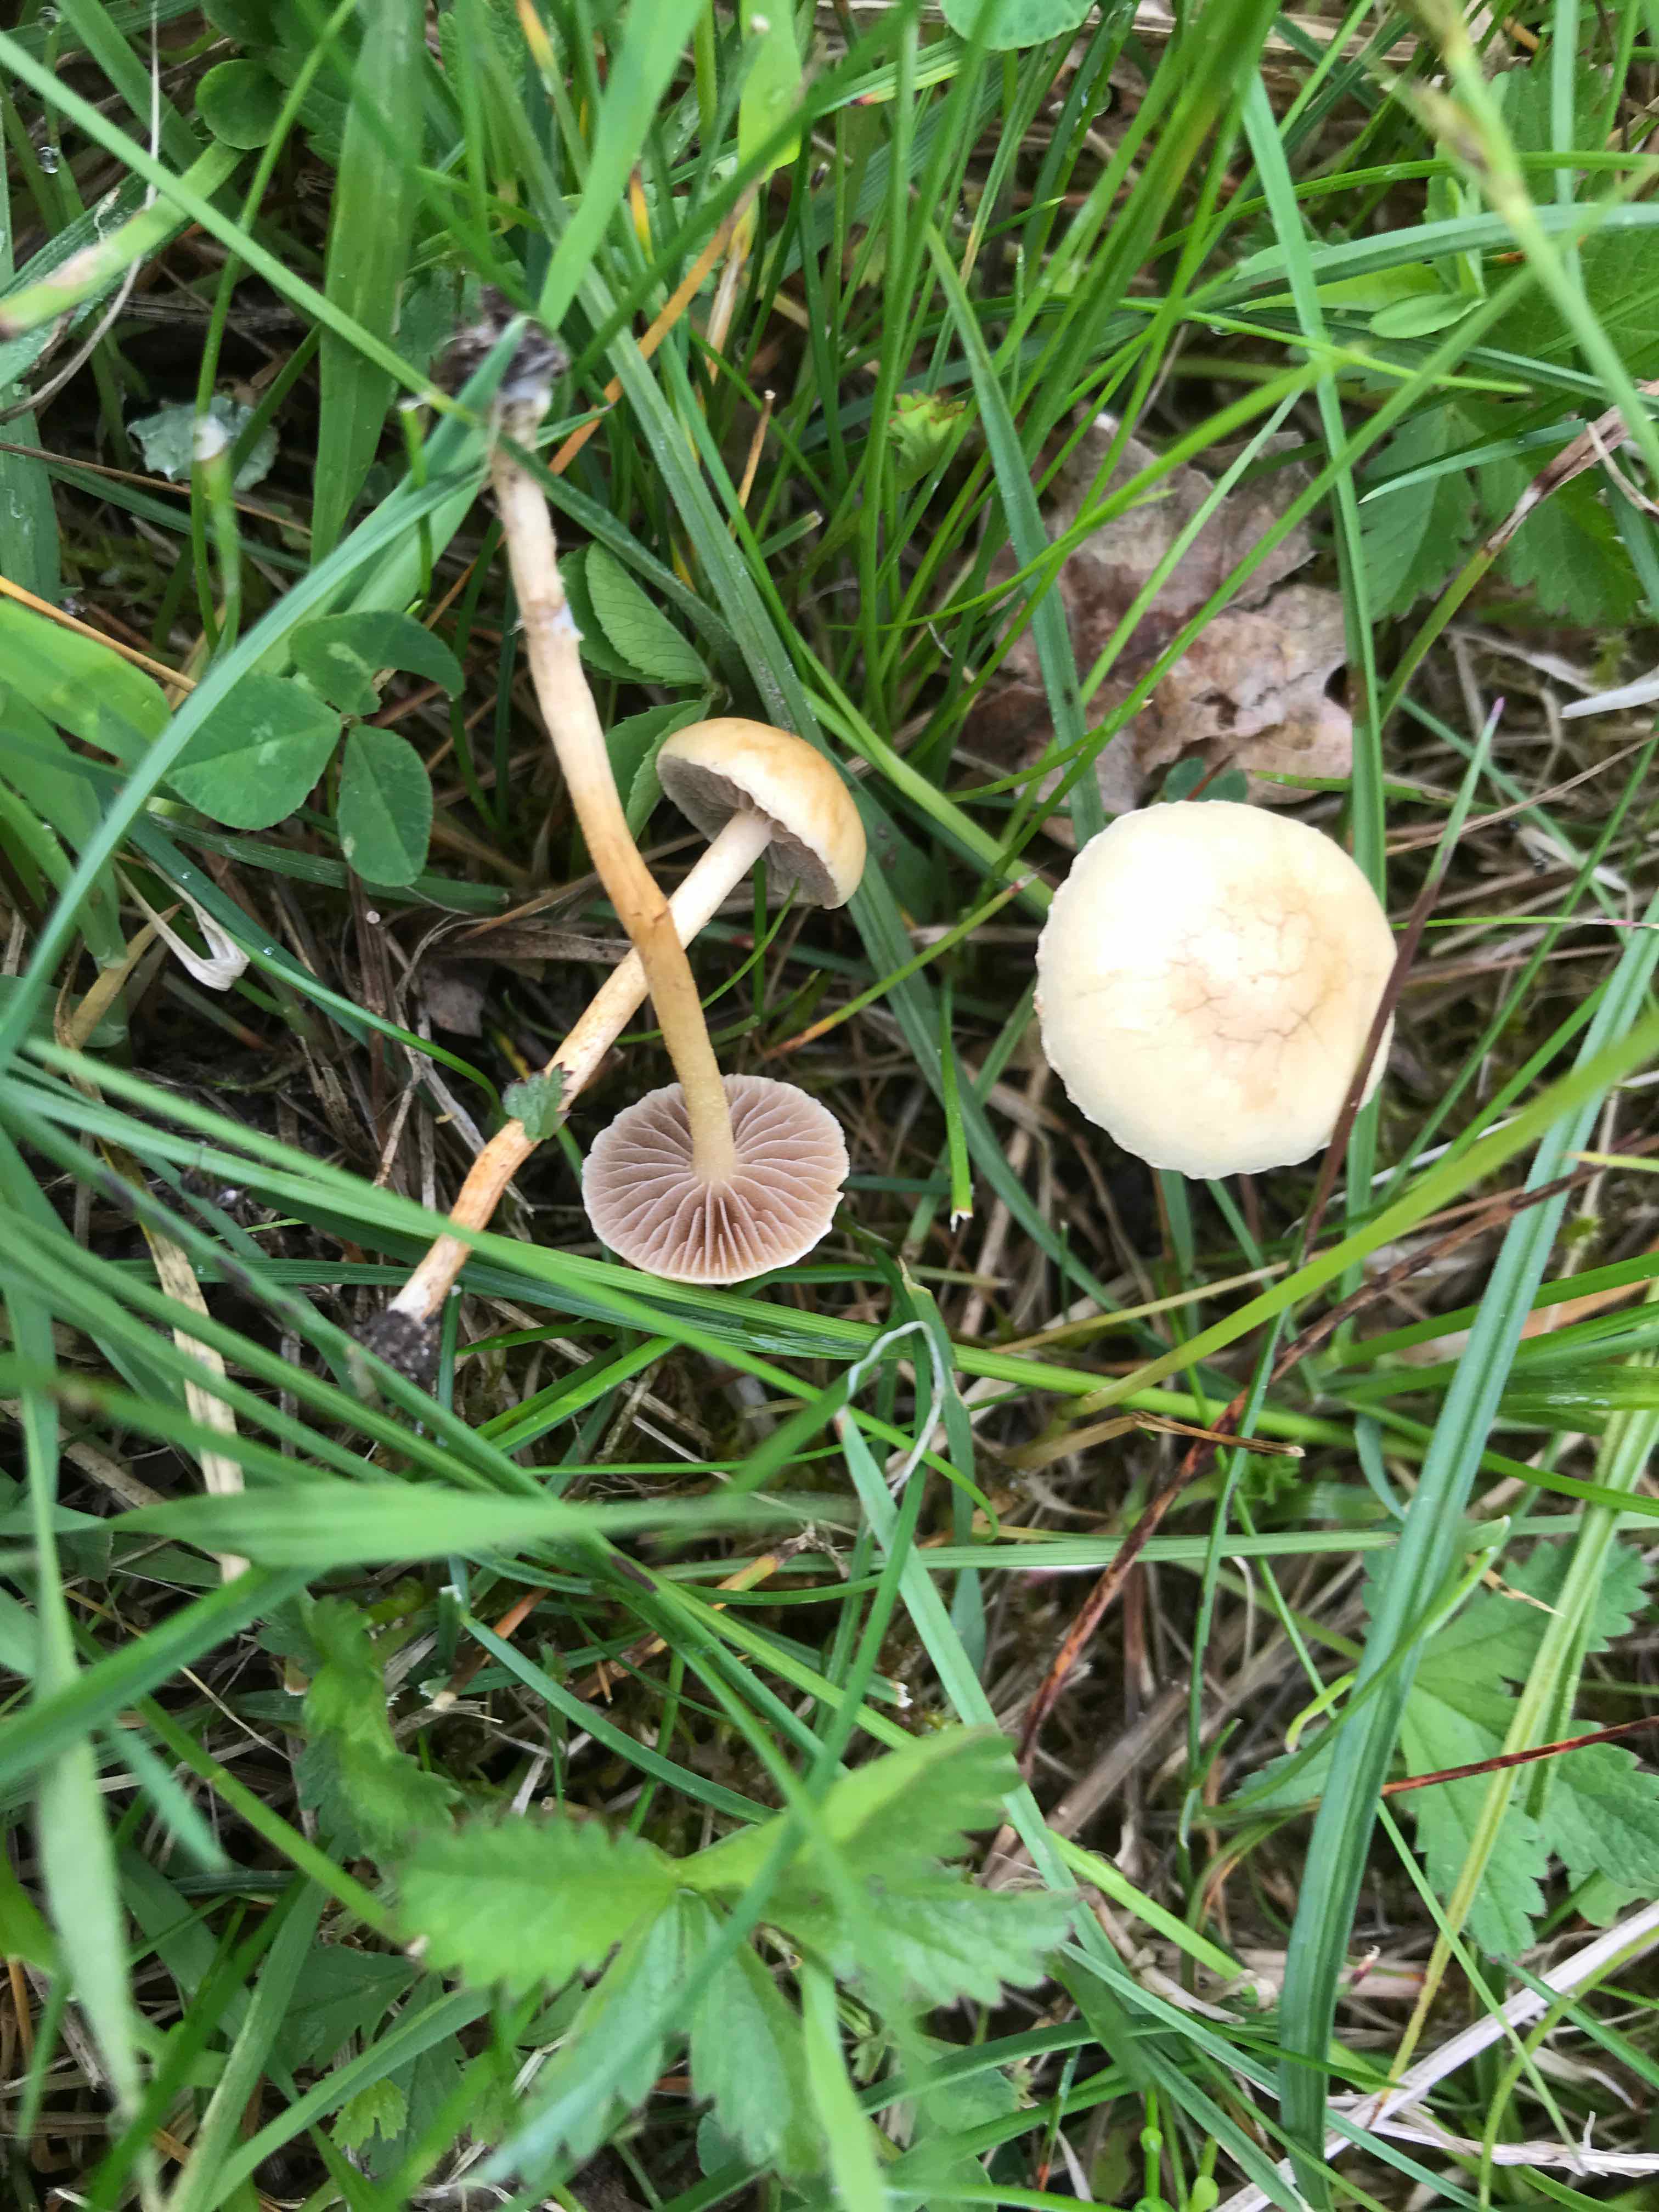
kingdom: Fungi
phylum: Basidiomycota
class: Agaricomycetes
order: Agaricales
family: Strophariaceae
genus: Agrocybe
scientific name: Agrocybe pediades
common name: almindelig agerhat
